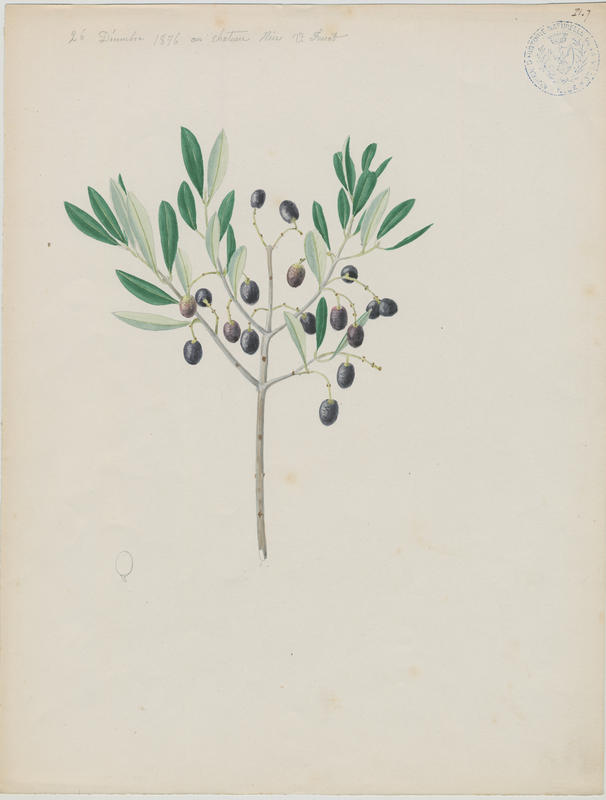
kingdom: Plantae
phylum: Tracheophyta
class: Magnoliopsida
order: Lamiales
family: Oleaceae
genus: Olea
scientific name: Olea europaea
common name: Olive
